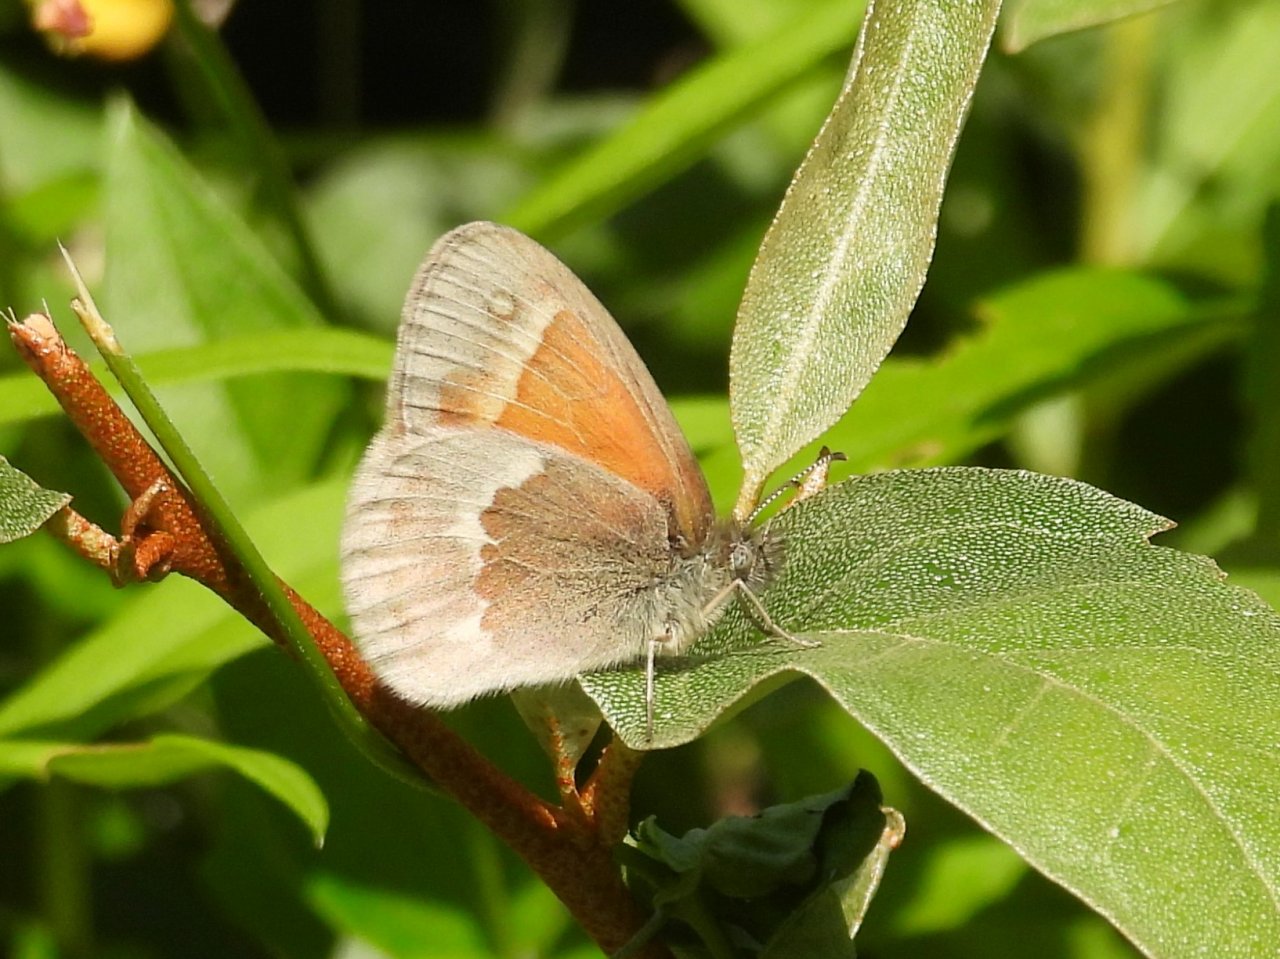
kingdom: Animalia
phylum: Arthropoda
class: Insecta
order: Lepidoptera
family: Nymphalidae
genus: Coenonympha
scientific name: Coenonympha tullia
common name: Large Heath
